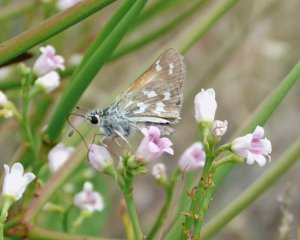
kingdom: Animalia
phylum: Arthropoda
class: Insecta
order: Lepidoptera
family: Hesperiidae
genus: Hesperia
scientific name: Hesperia juba
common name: Juba Skipper
